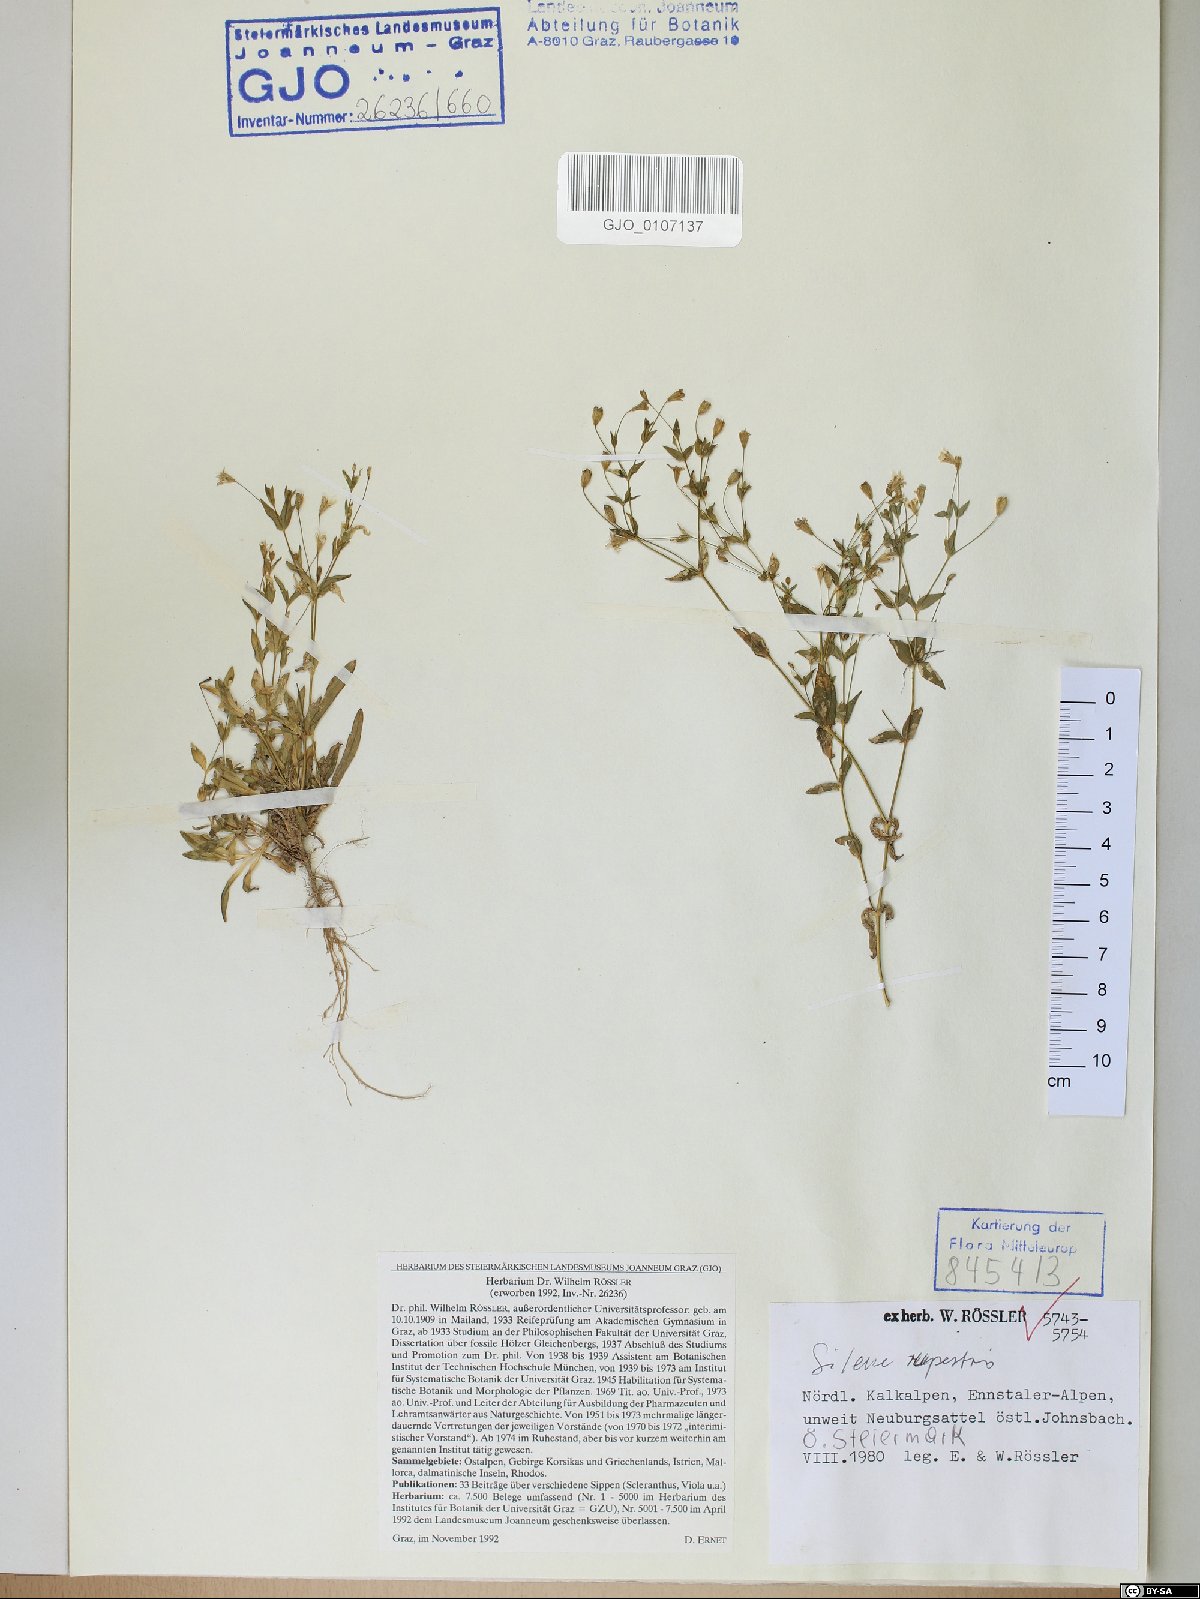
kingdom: Plantae
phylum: Tracheophyta
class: Magnoliopsida
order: Caryophyllales
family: Caryophyllaceae
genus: Atocion
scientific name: Atocion rupestre
